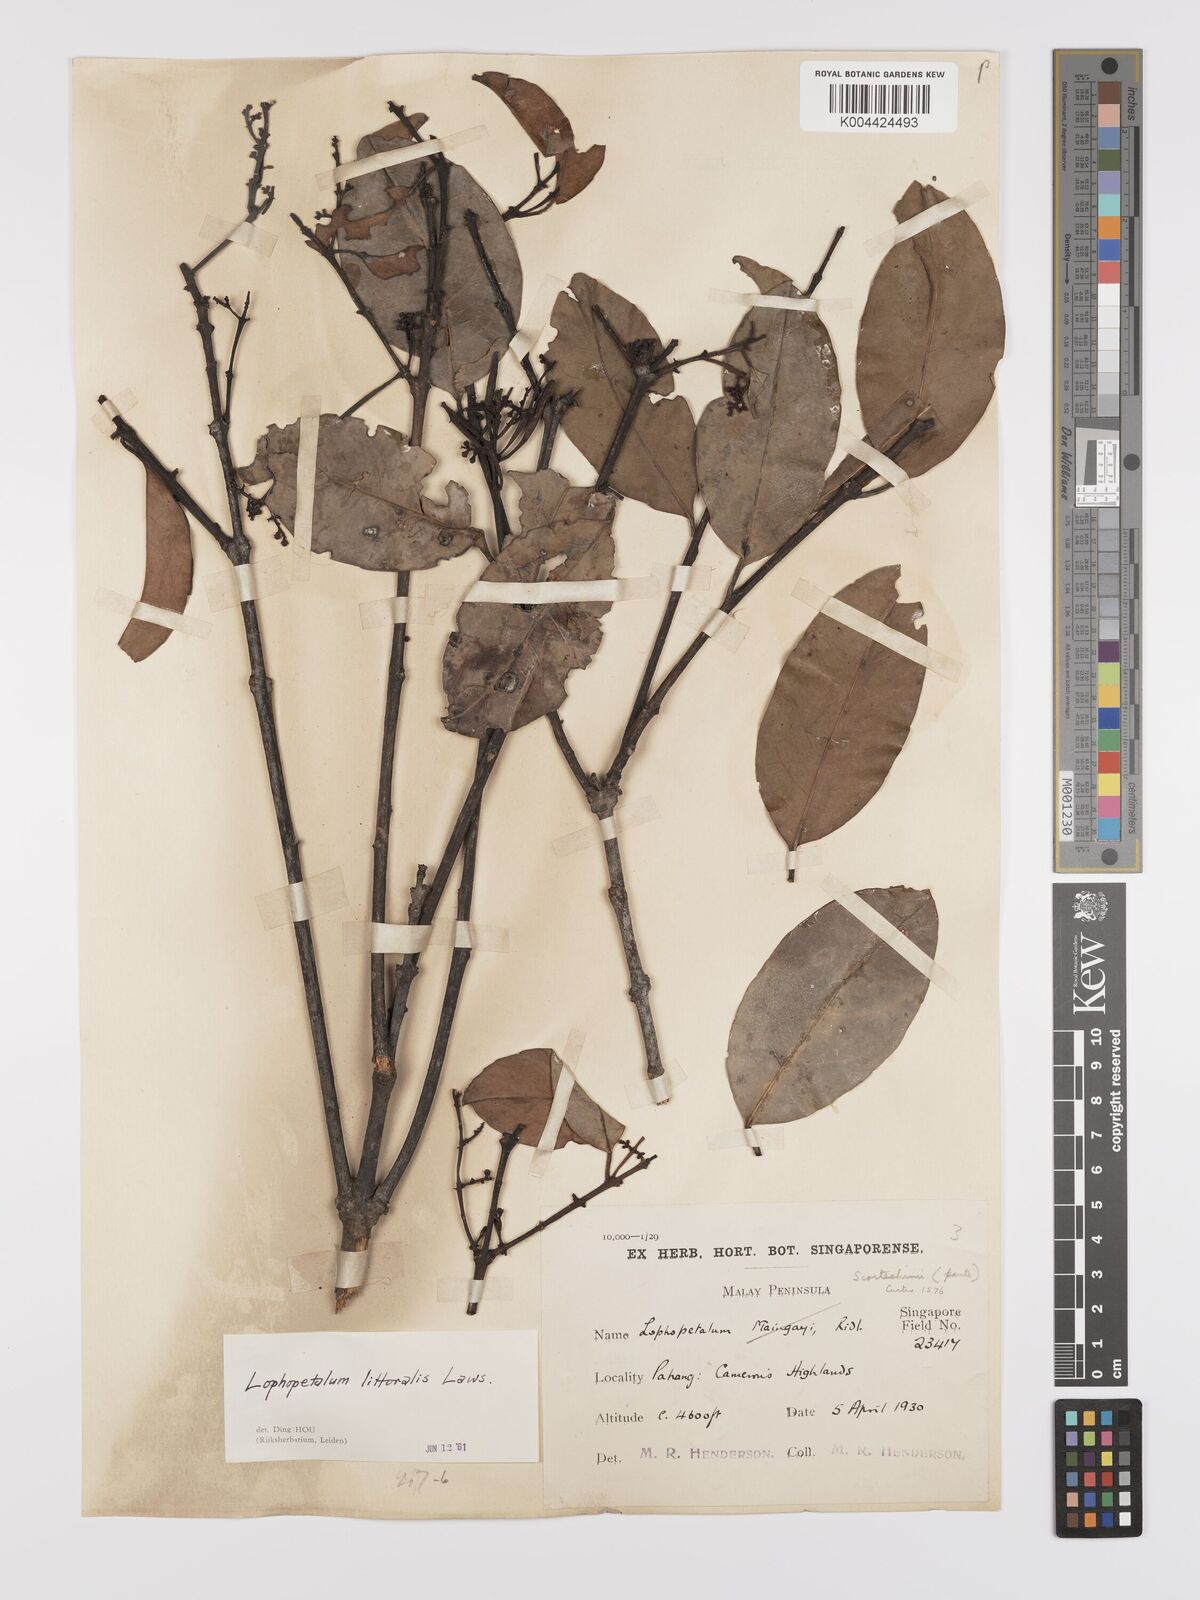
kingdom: Plantae
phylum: Tracheophyta
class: Magnoliopsida
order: Celastrales
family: Celastraceae
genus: Kokoona
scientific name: Kokoona littoralis
